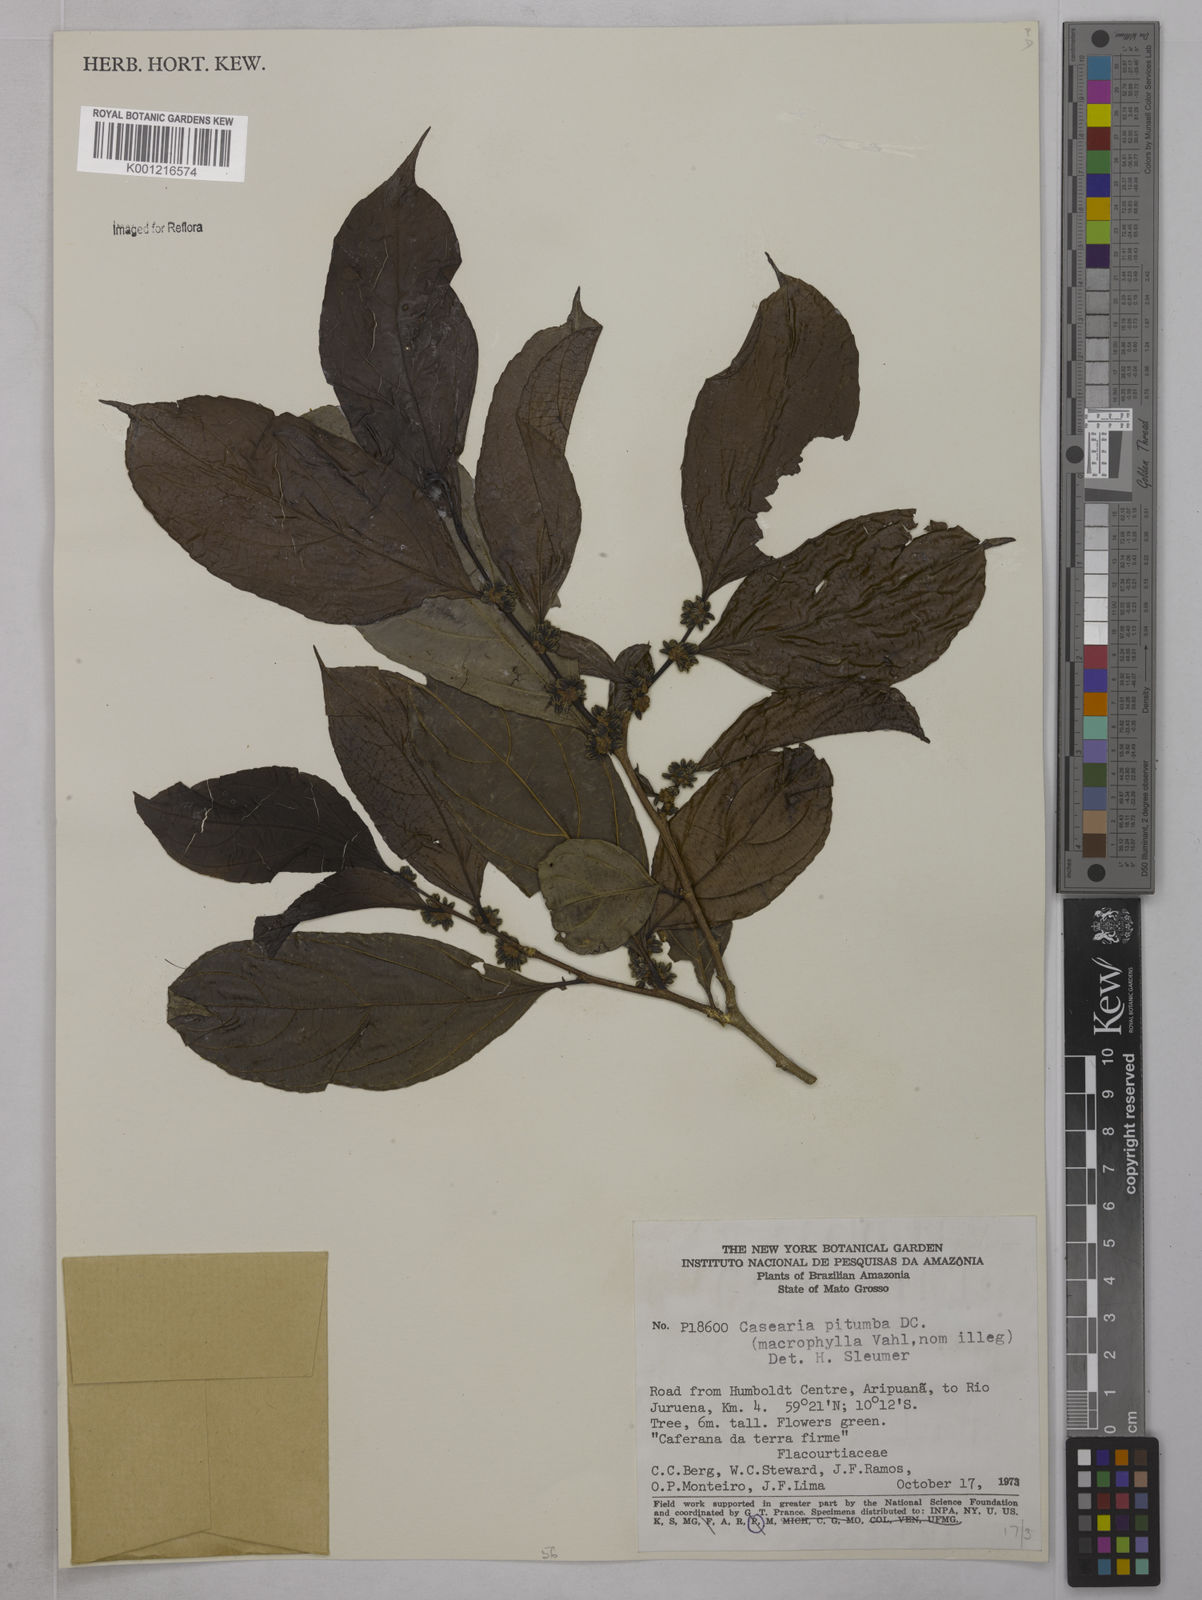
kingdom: Plantae
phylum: Tracheophyta
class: Magnoliopsida
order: Malpighiales
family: Salicaceae
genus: Casearia
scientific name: Casearia pitumba
